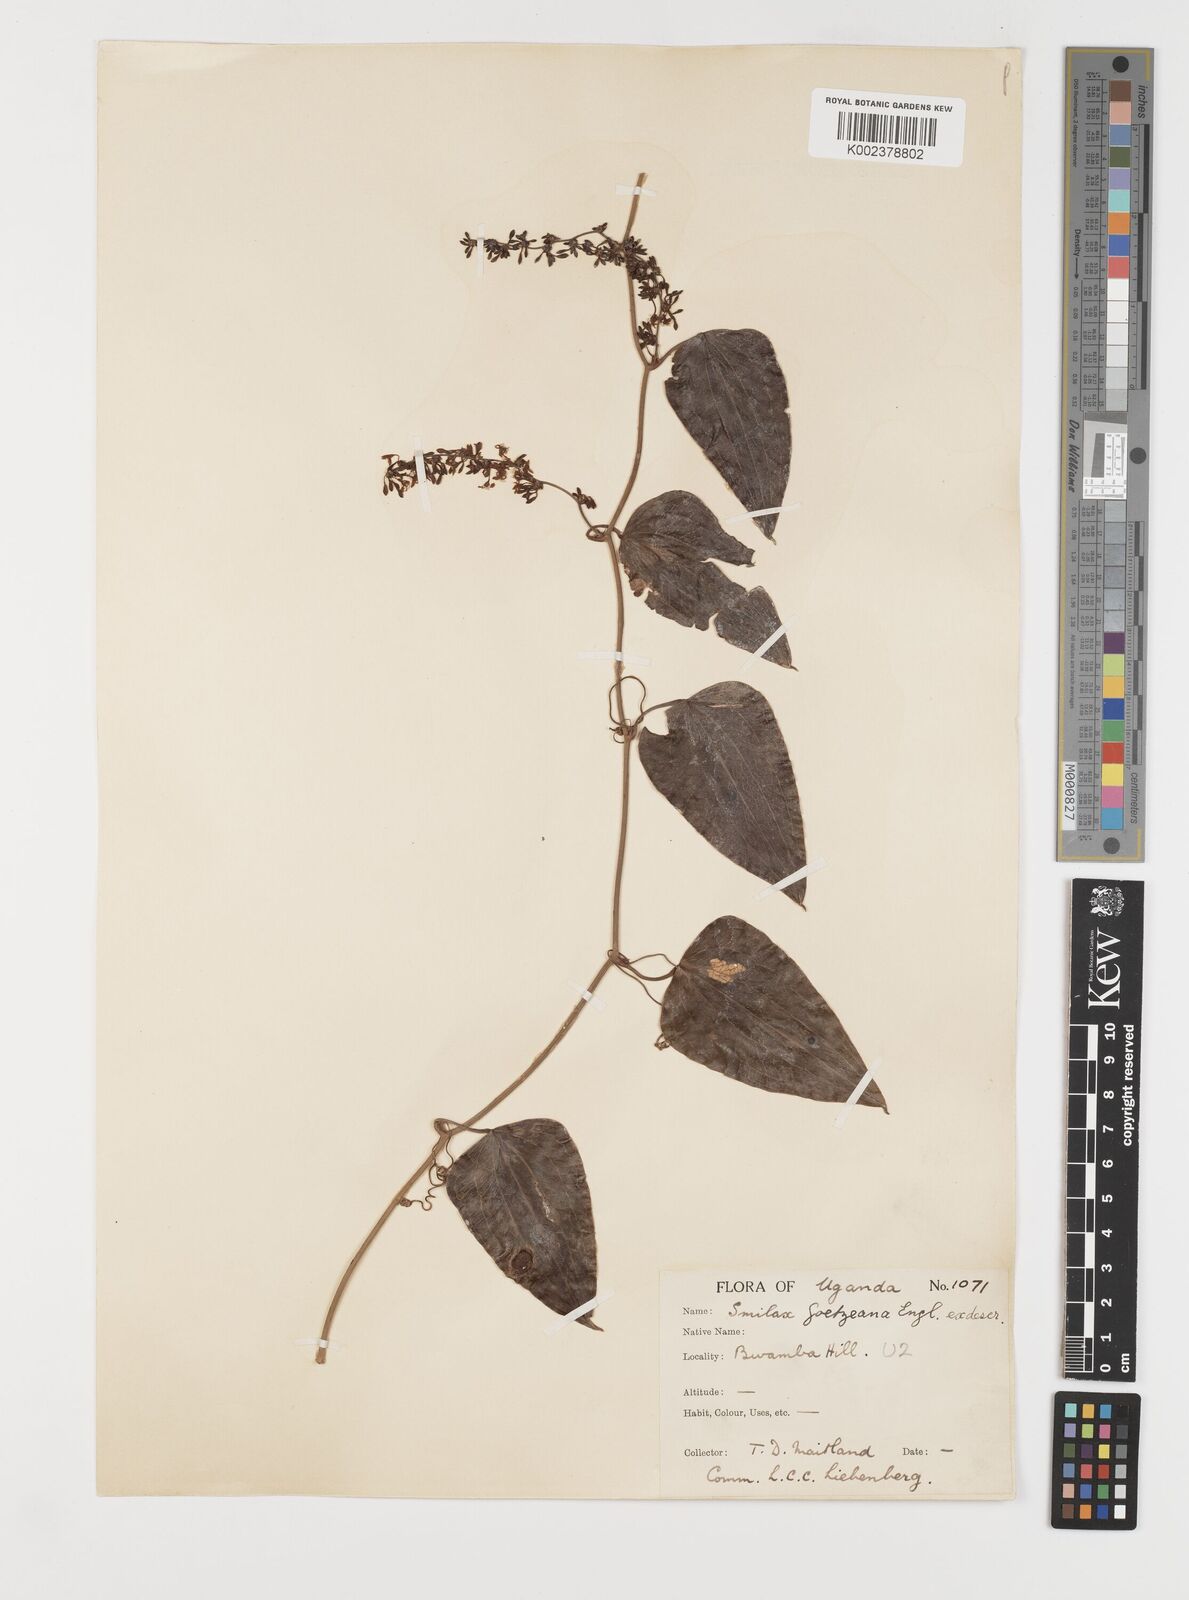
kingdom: Plantae
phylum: Tracheophyta
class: Liliopsida
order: Liliales
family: Smilacaceae
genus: Smilax
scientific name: Smilax aspera
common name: Common smilax
